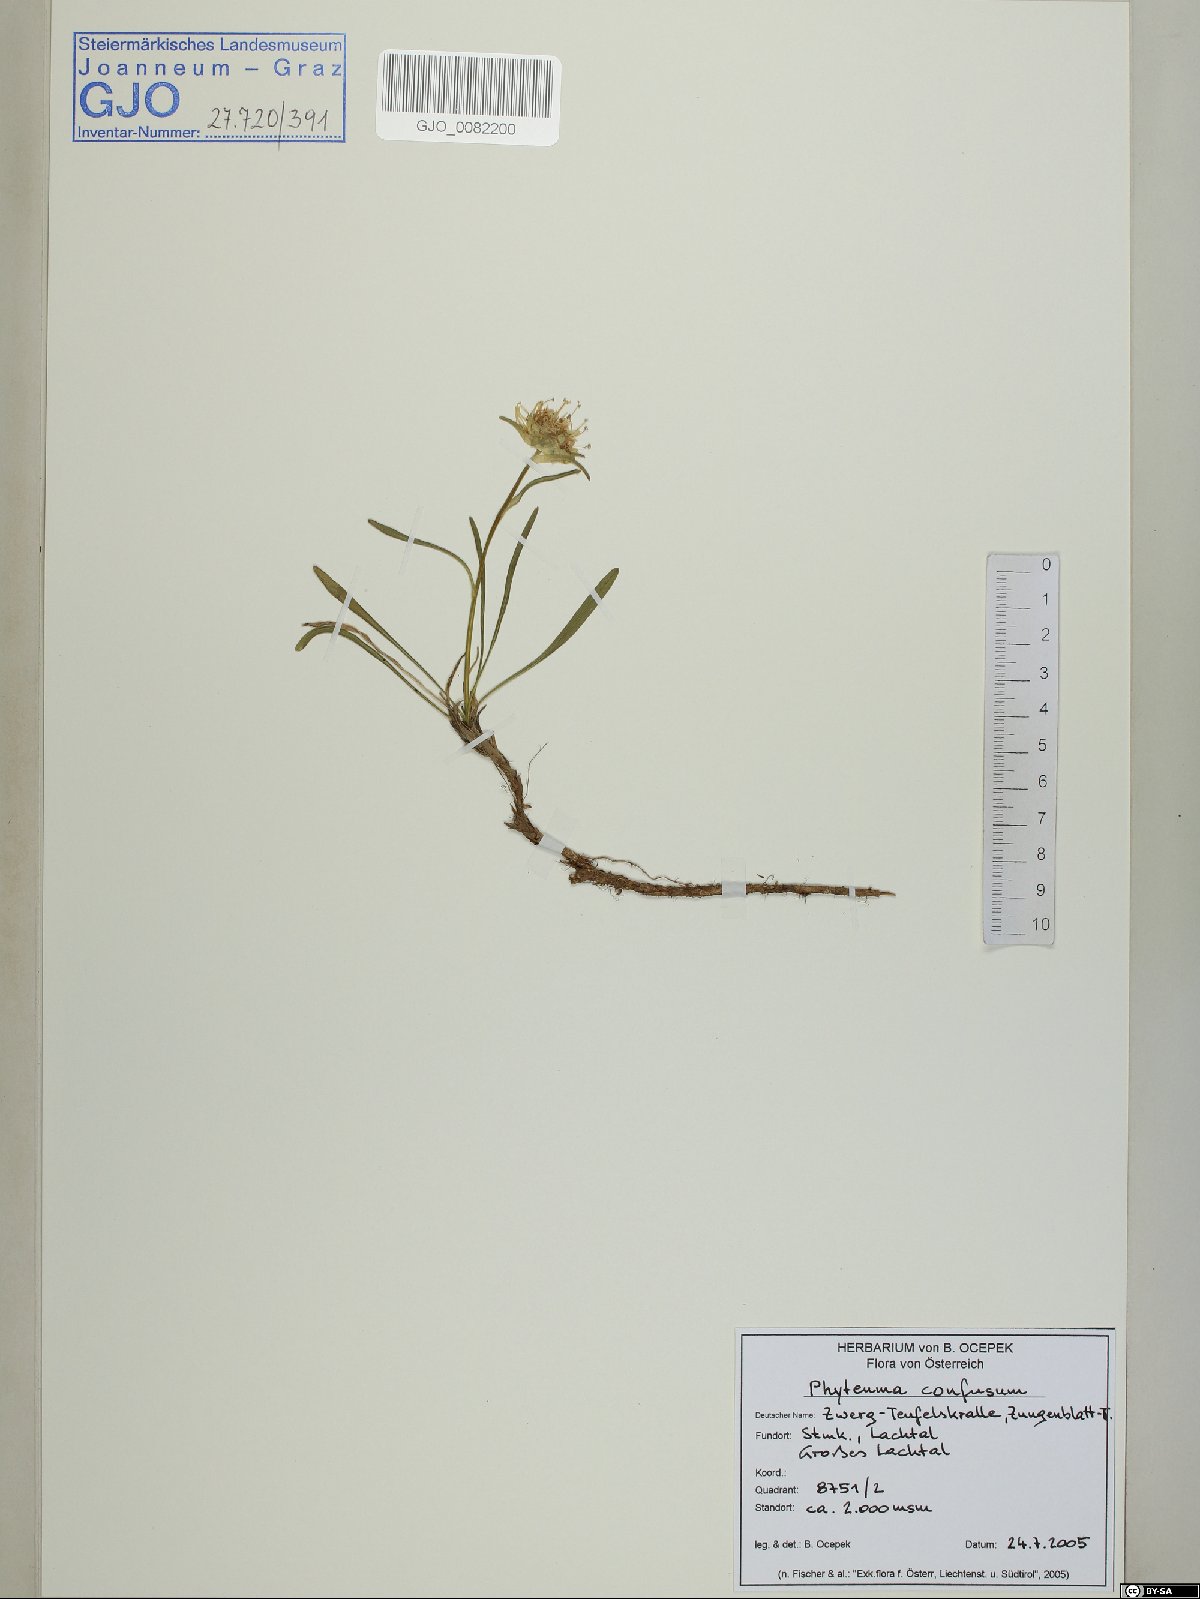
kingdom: Plantae
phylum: Tracheophyta
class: Magnoliopsida
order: Asterales
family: Campanulaceae
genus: Phyteuma
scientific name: Phyteuma confusum
